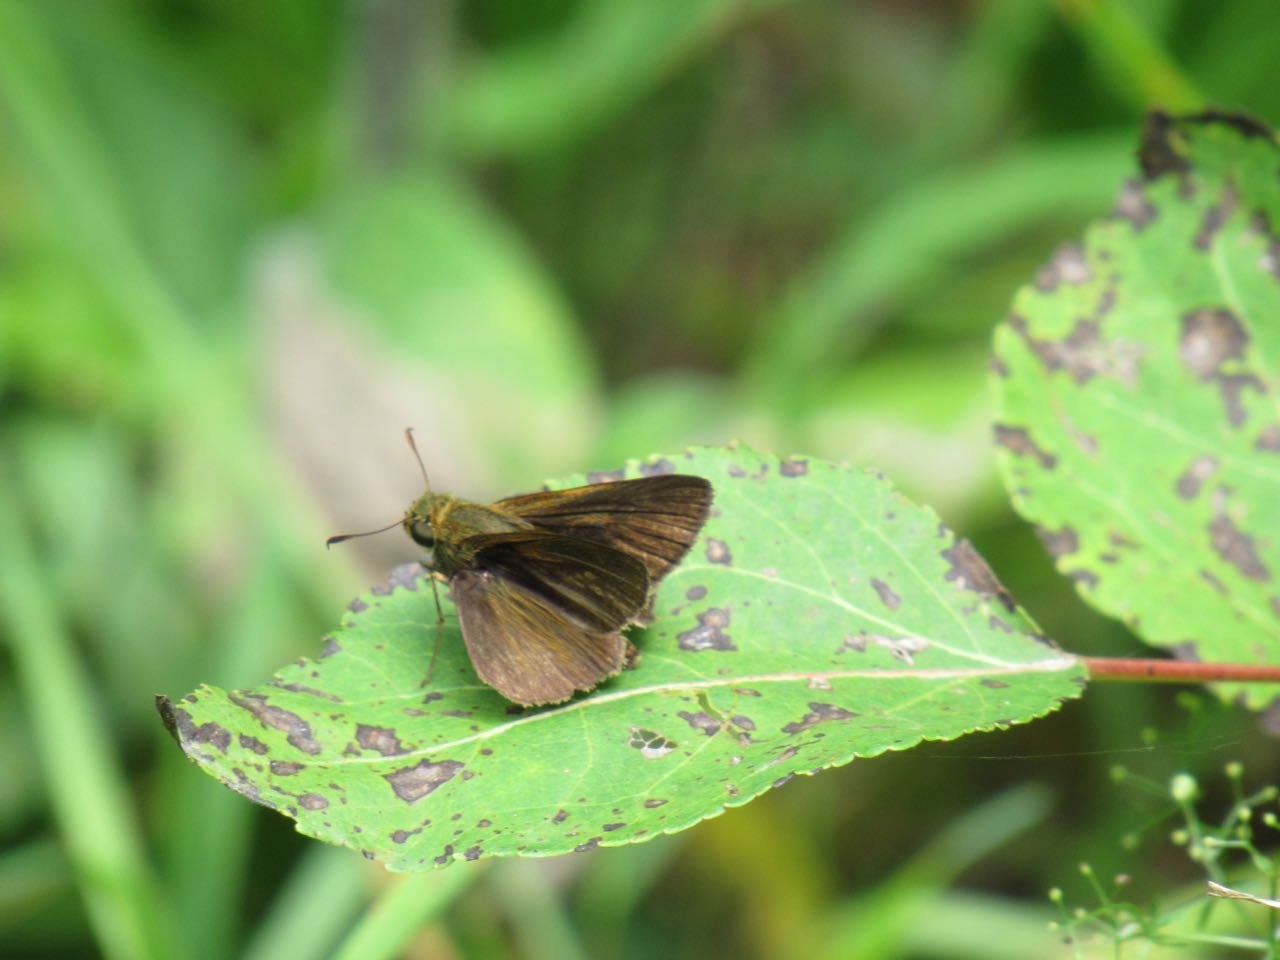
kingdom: Animalia
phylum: Arthropoda
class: Insecta
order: Lepidoptera
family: Hesperiidae
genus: Euphyes
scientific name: Euphyes vestris
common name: Dun Skipper
